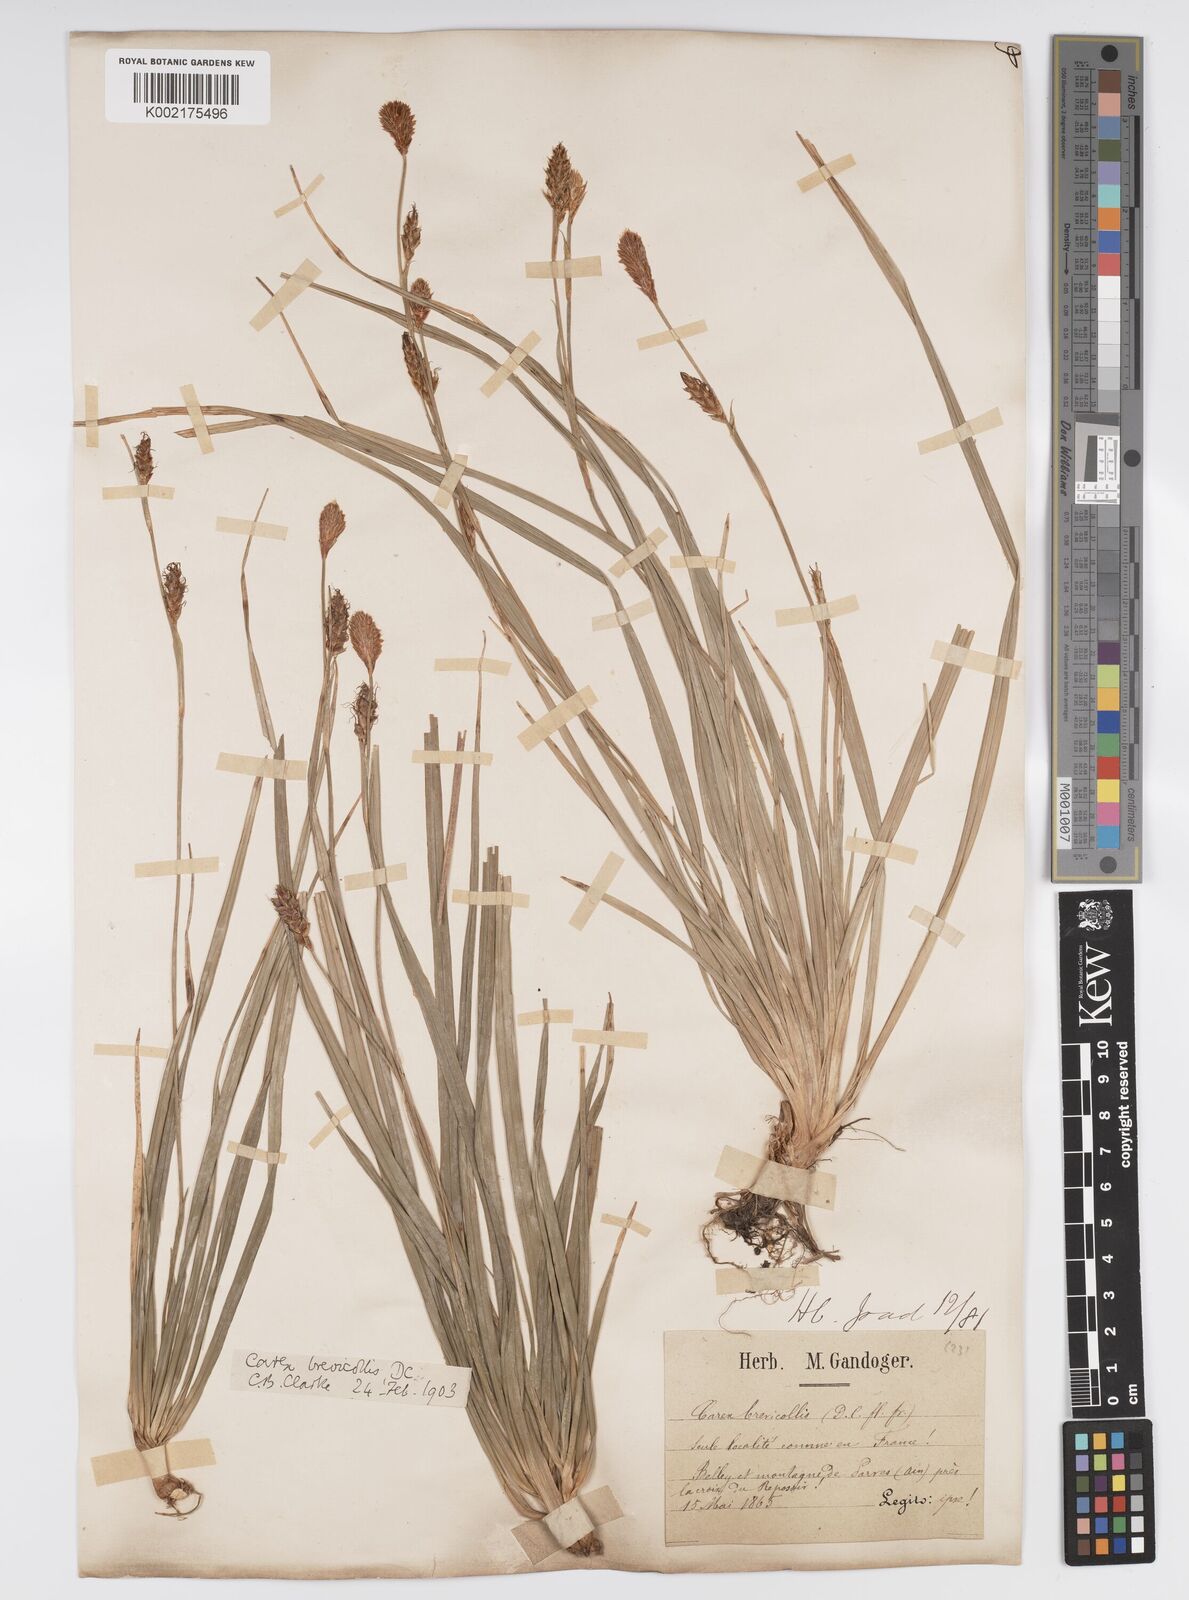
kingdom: Plantae
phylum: Tracheophyta
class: Liliopsida
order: Poales
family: Cyperaceae
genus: Carex
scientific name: Carex brevicollis
